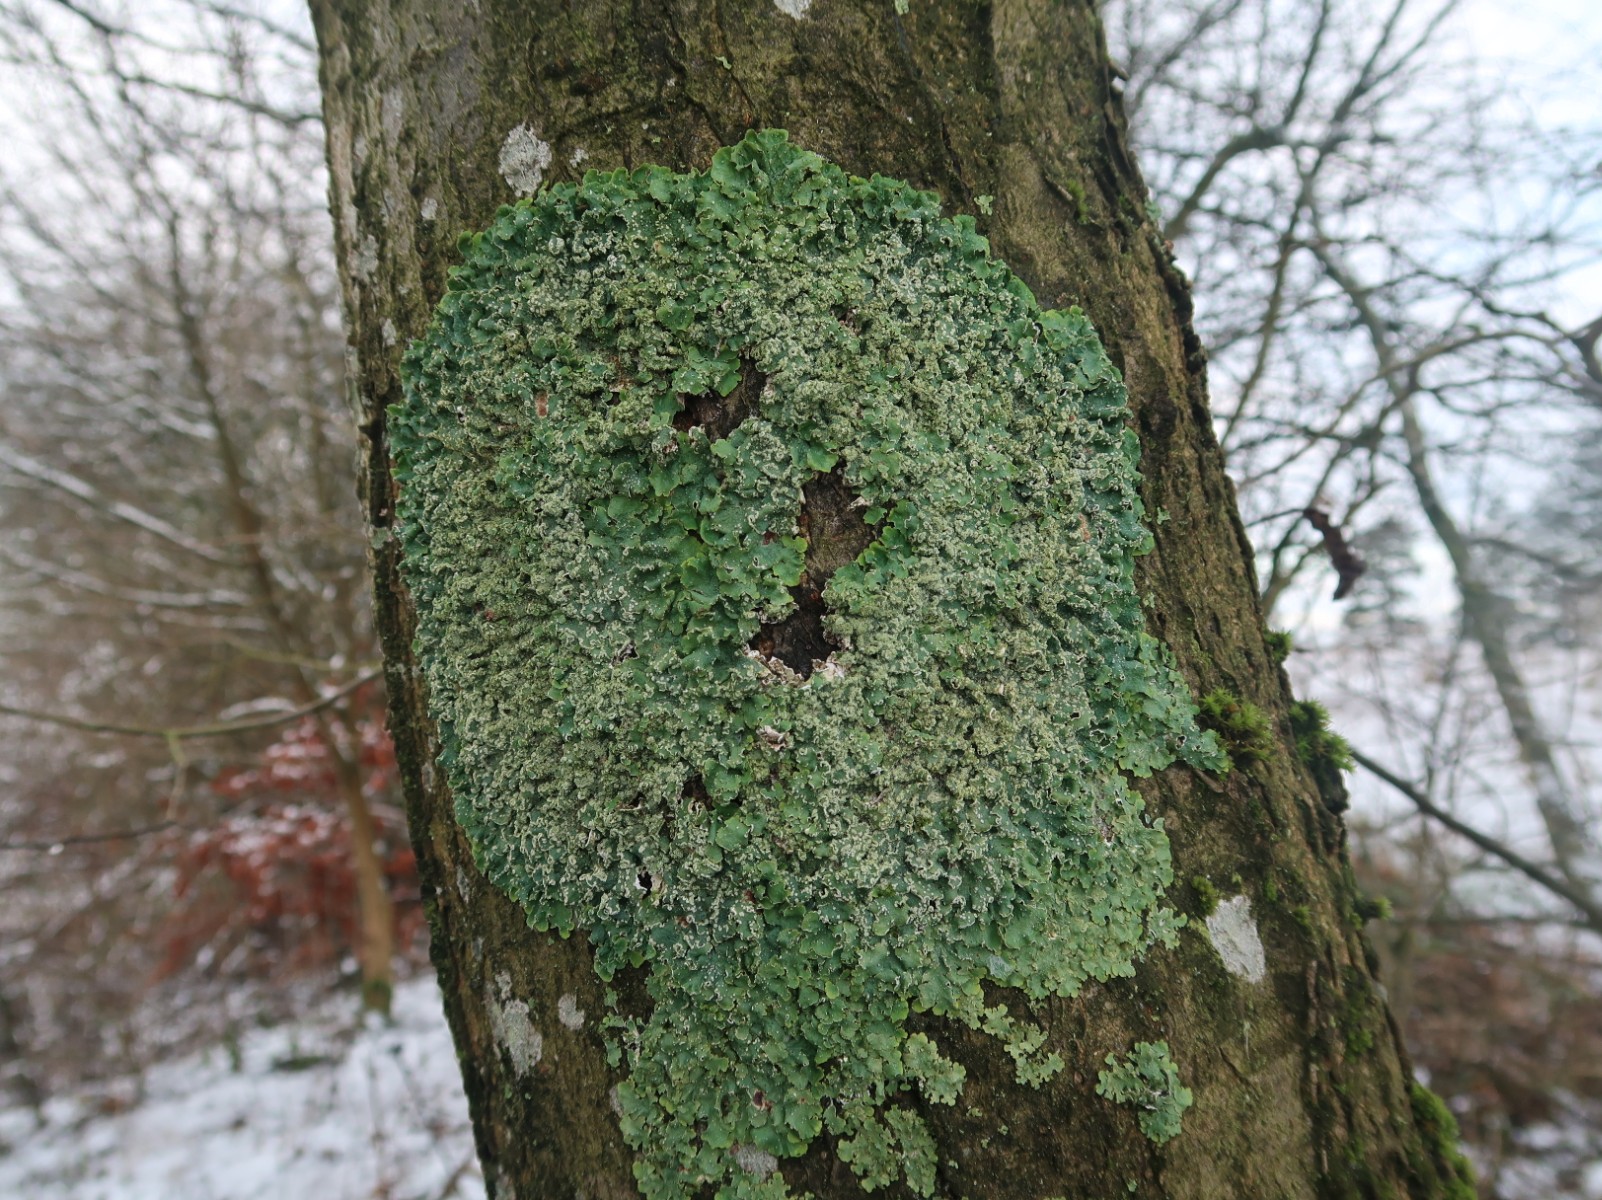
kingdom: Fungi
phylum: Ascomycota
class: Lecanoromycetes
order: Lecanorales
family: Parmeliaceae
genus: Punctelia
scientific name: Punctelia jeckeri
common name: randstøvet skållav
